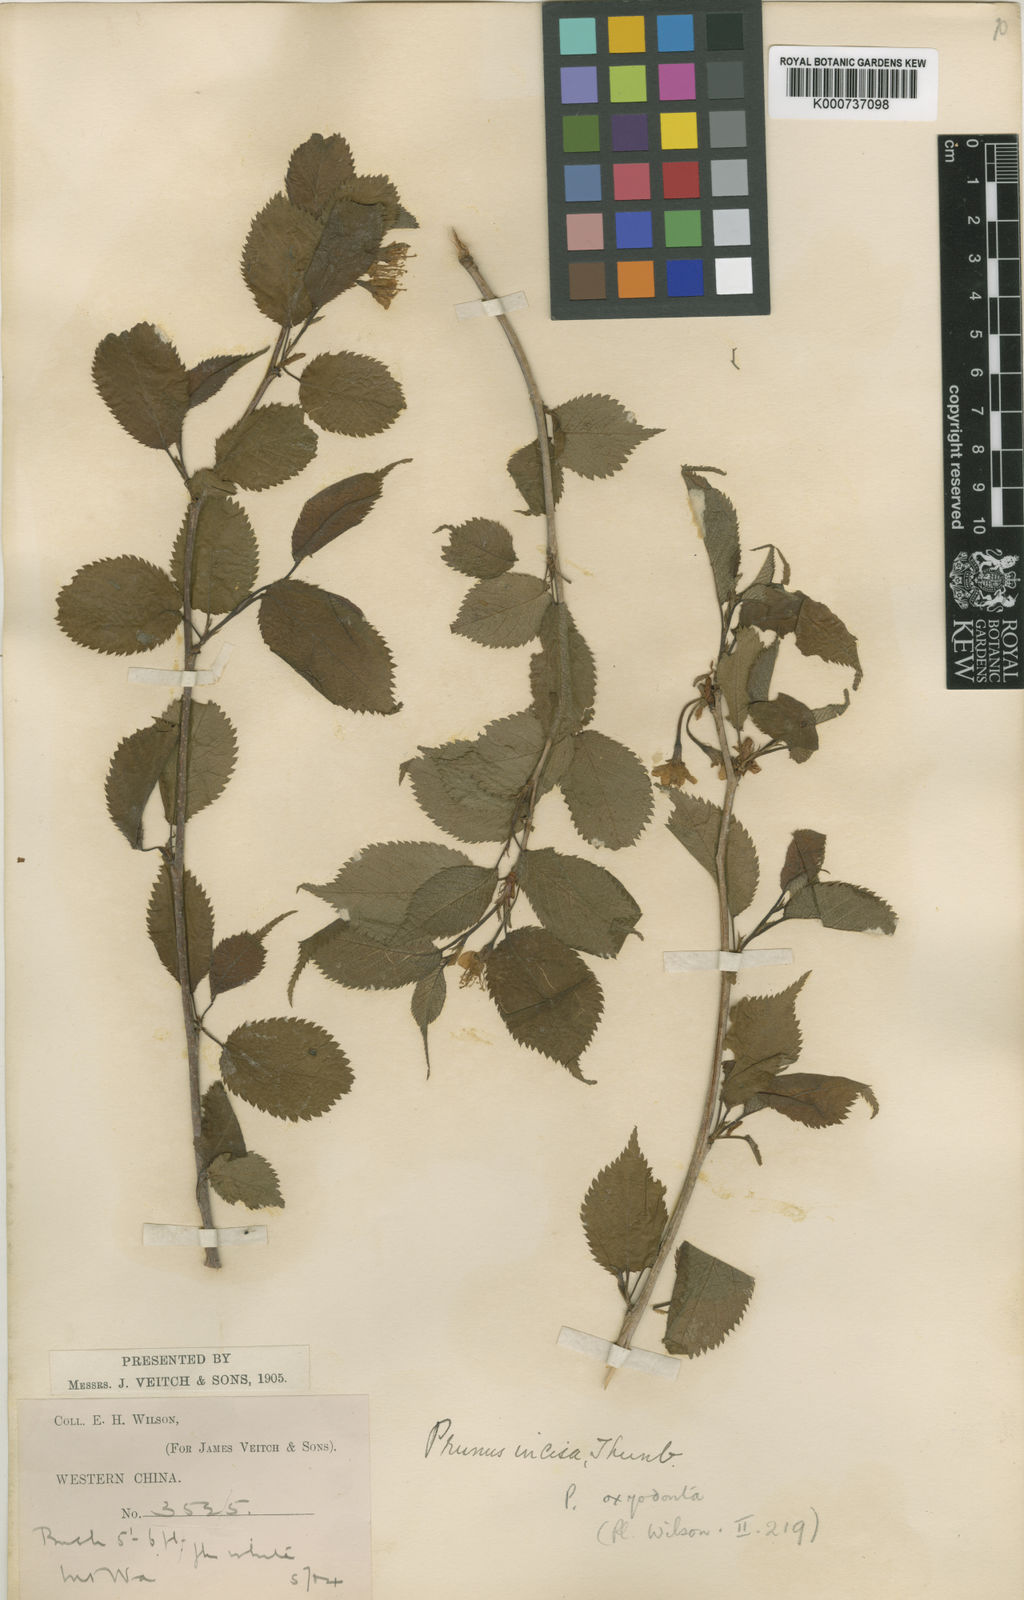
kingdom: Plantae
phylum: Tracheophyta
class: Magnoliopsida
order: Rosales
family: Rosaceae
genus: Prunus
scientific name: Prunus oxyodonta
